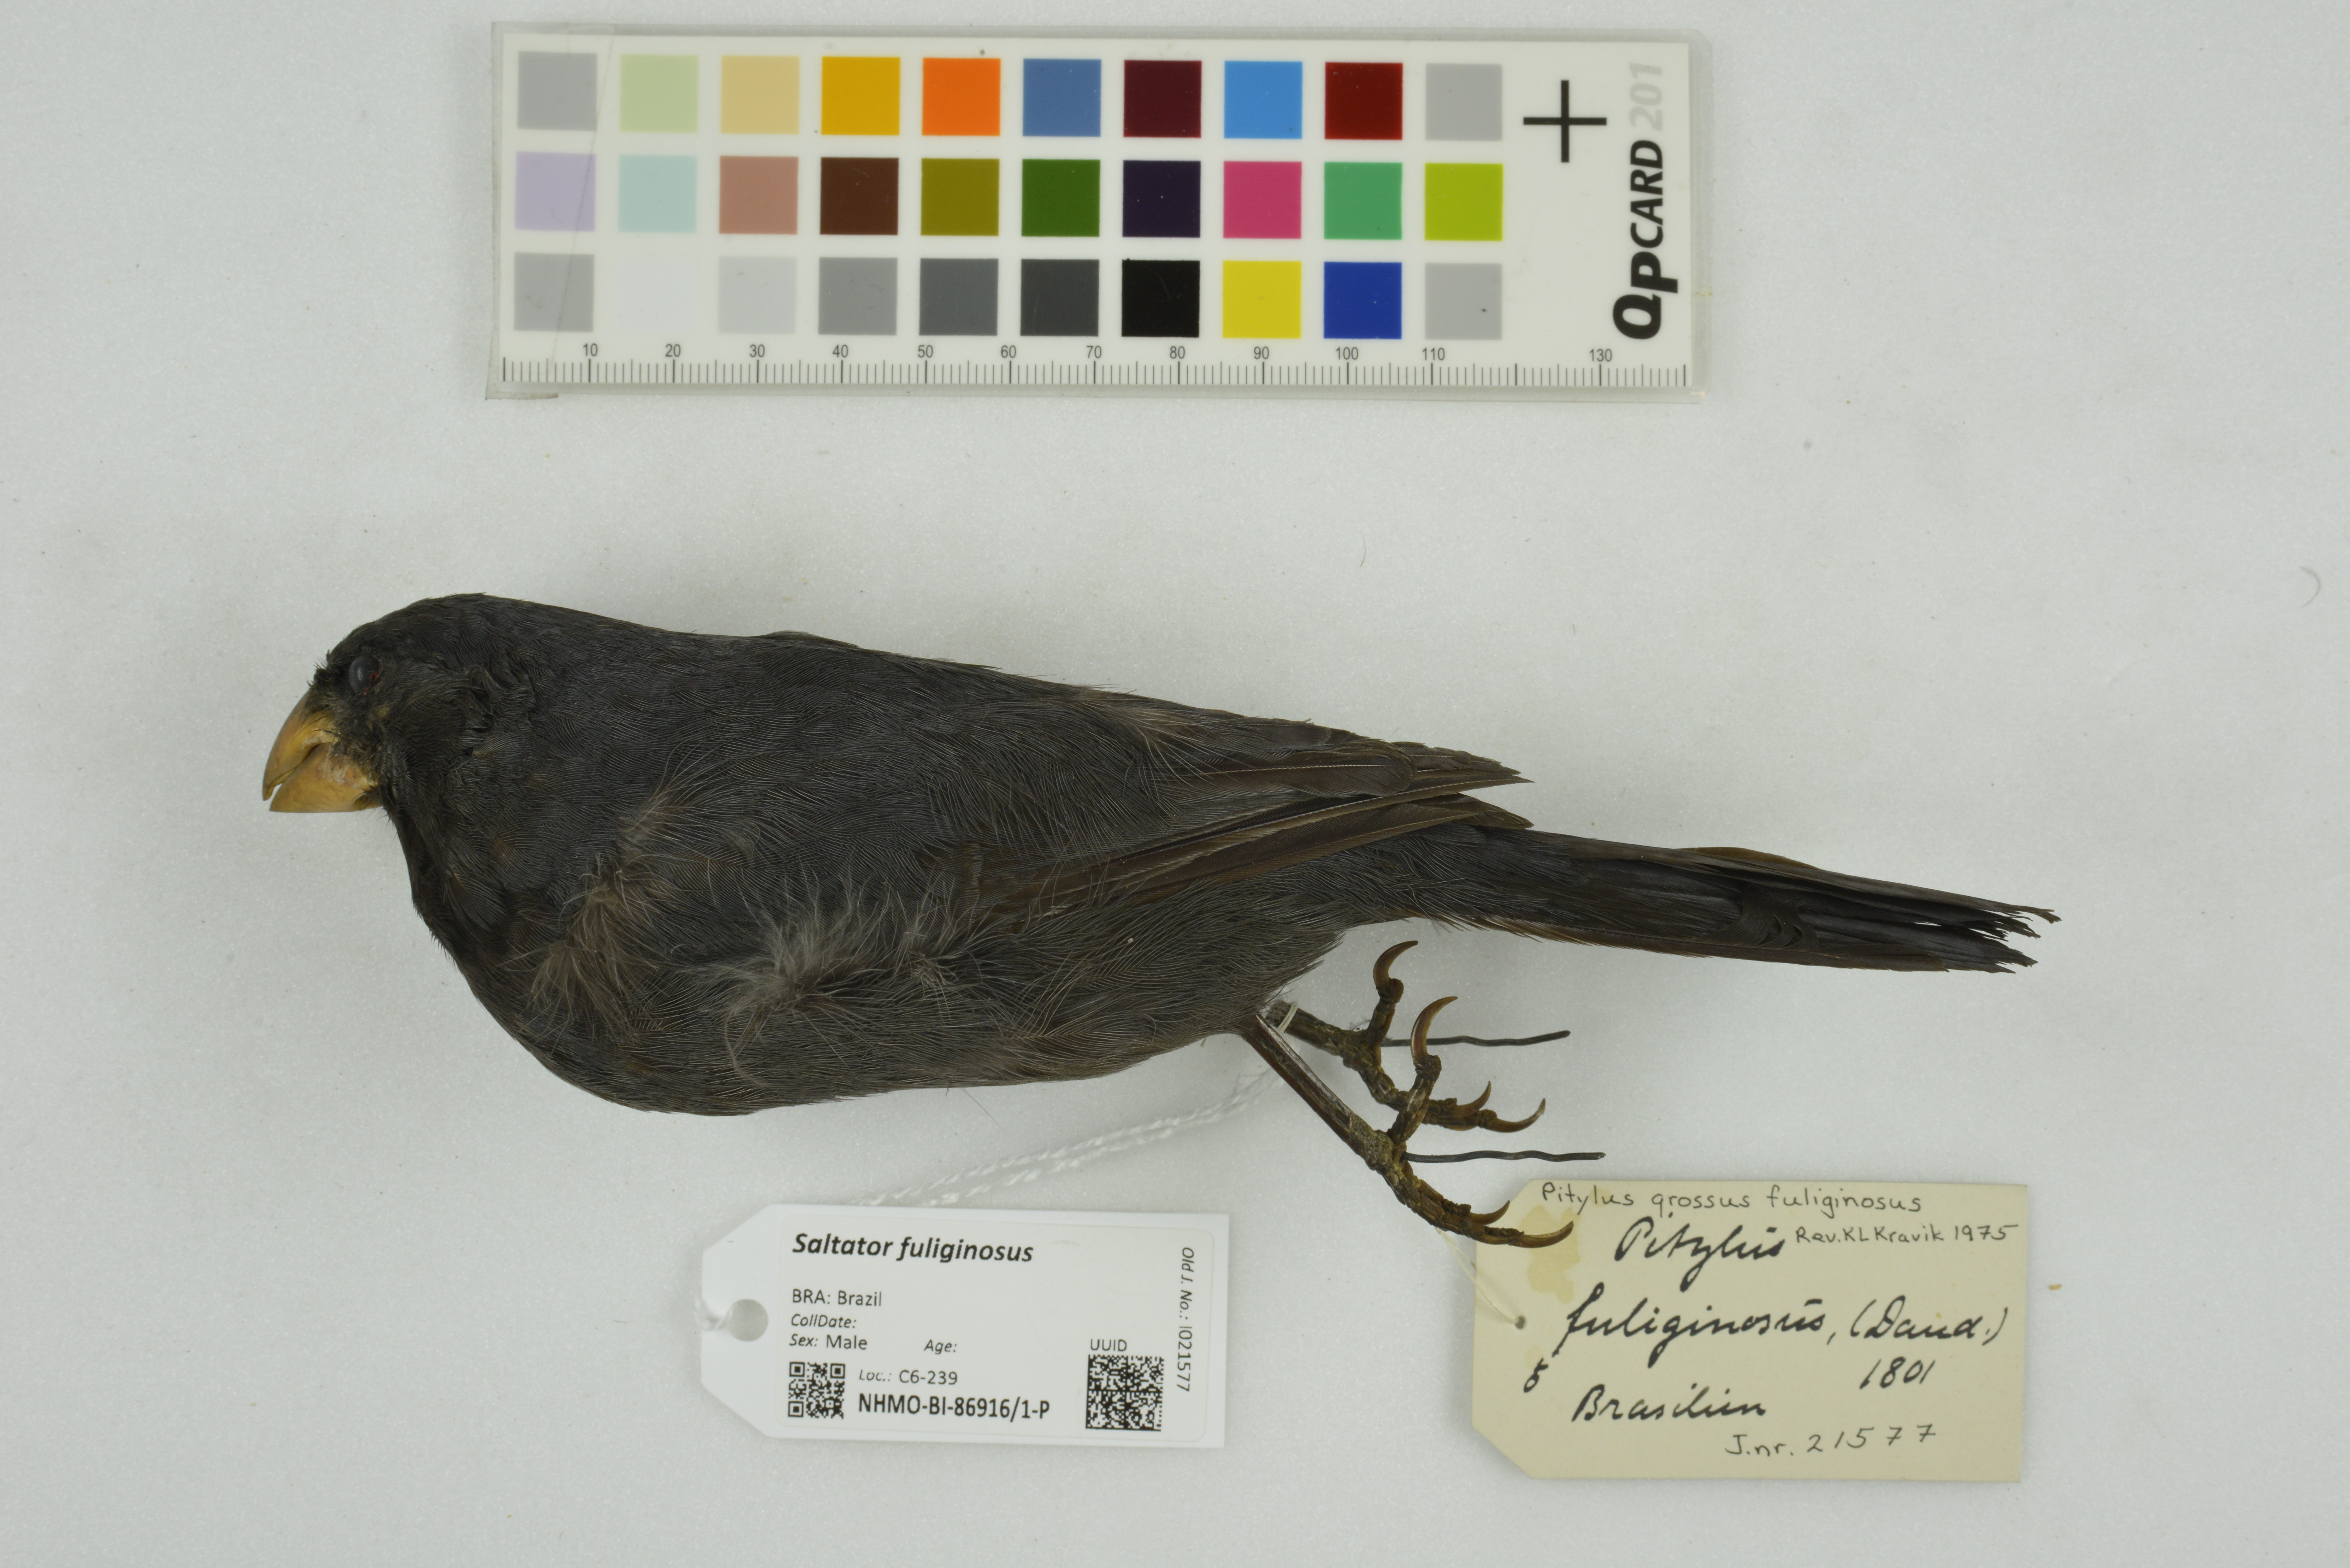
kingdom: Animalia
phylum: Chordata
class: Aves
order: Passeriformes
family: Thraupidae
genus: Saltator
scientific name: Saltator fuliginosus
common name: Black-throated grosbeak
